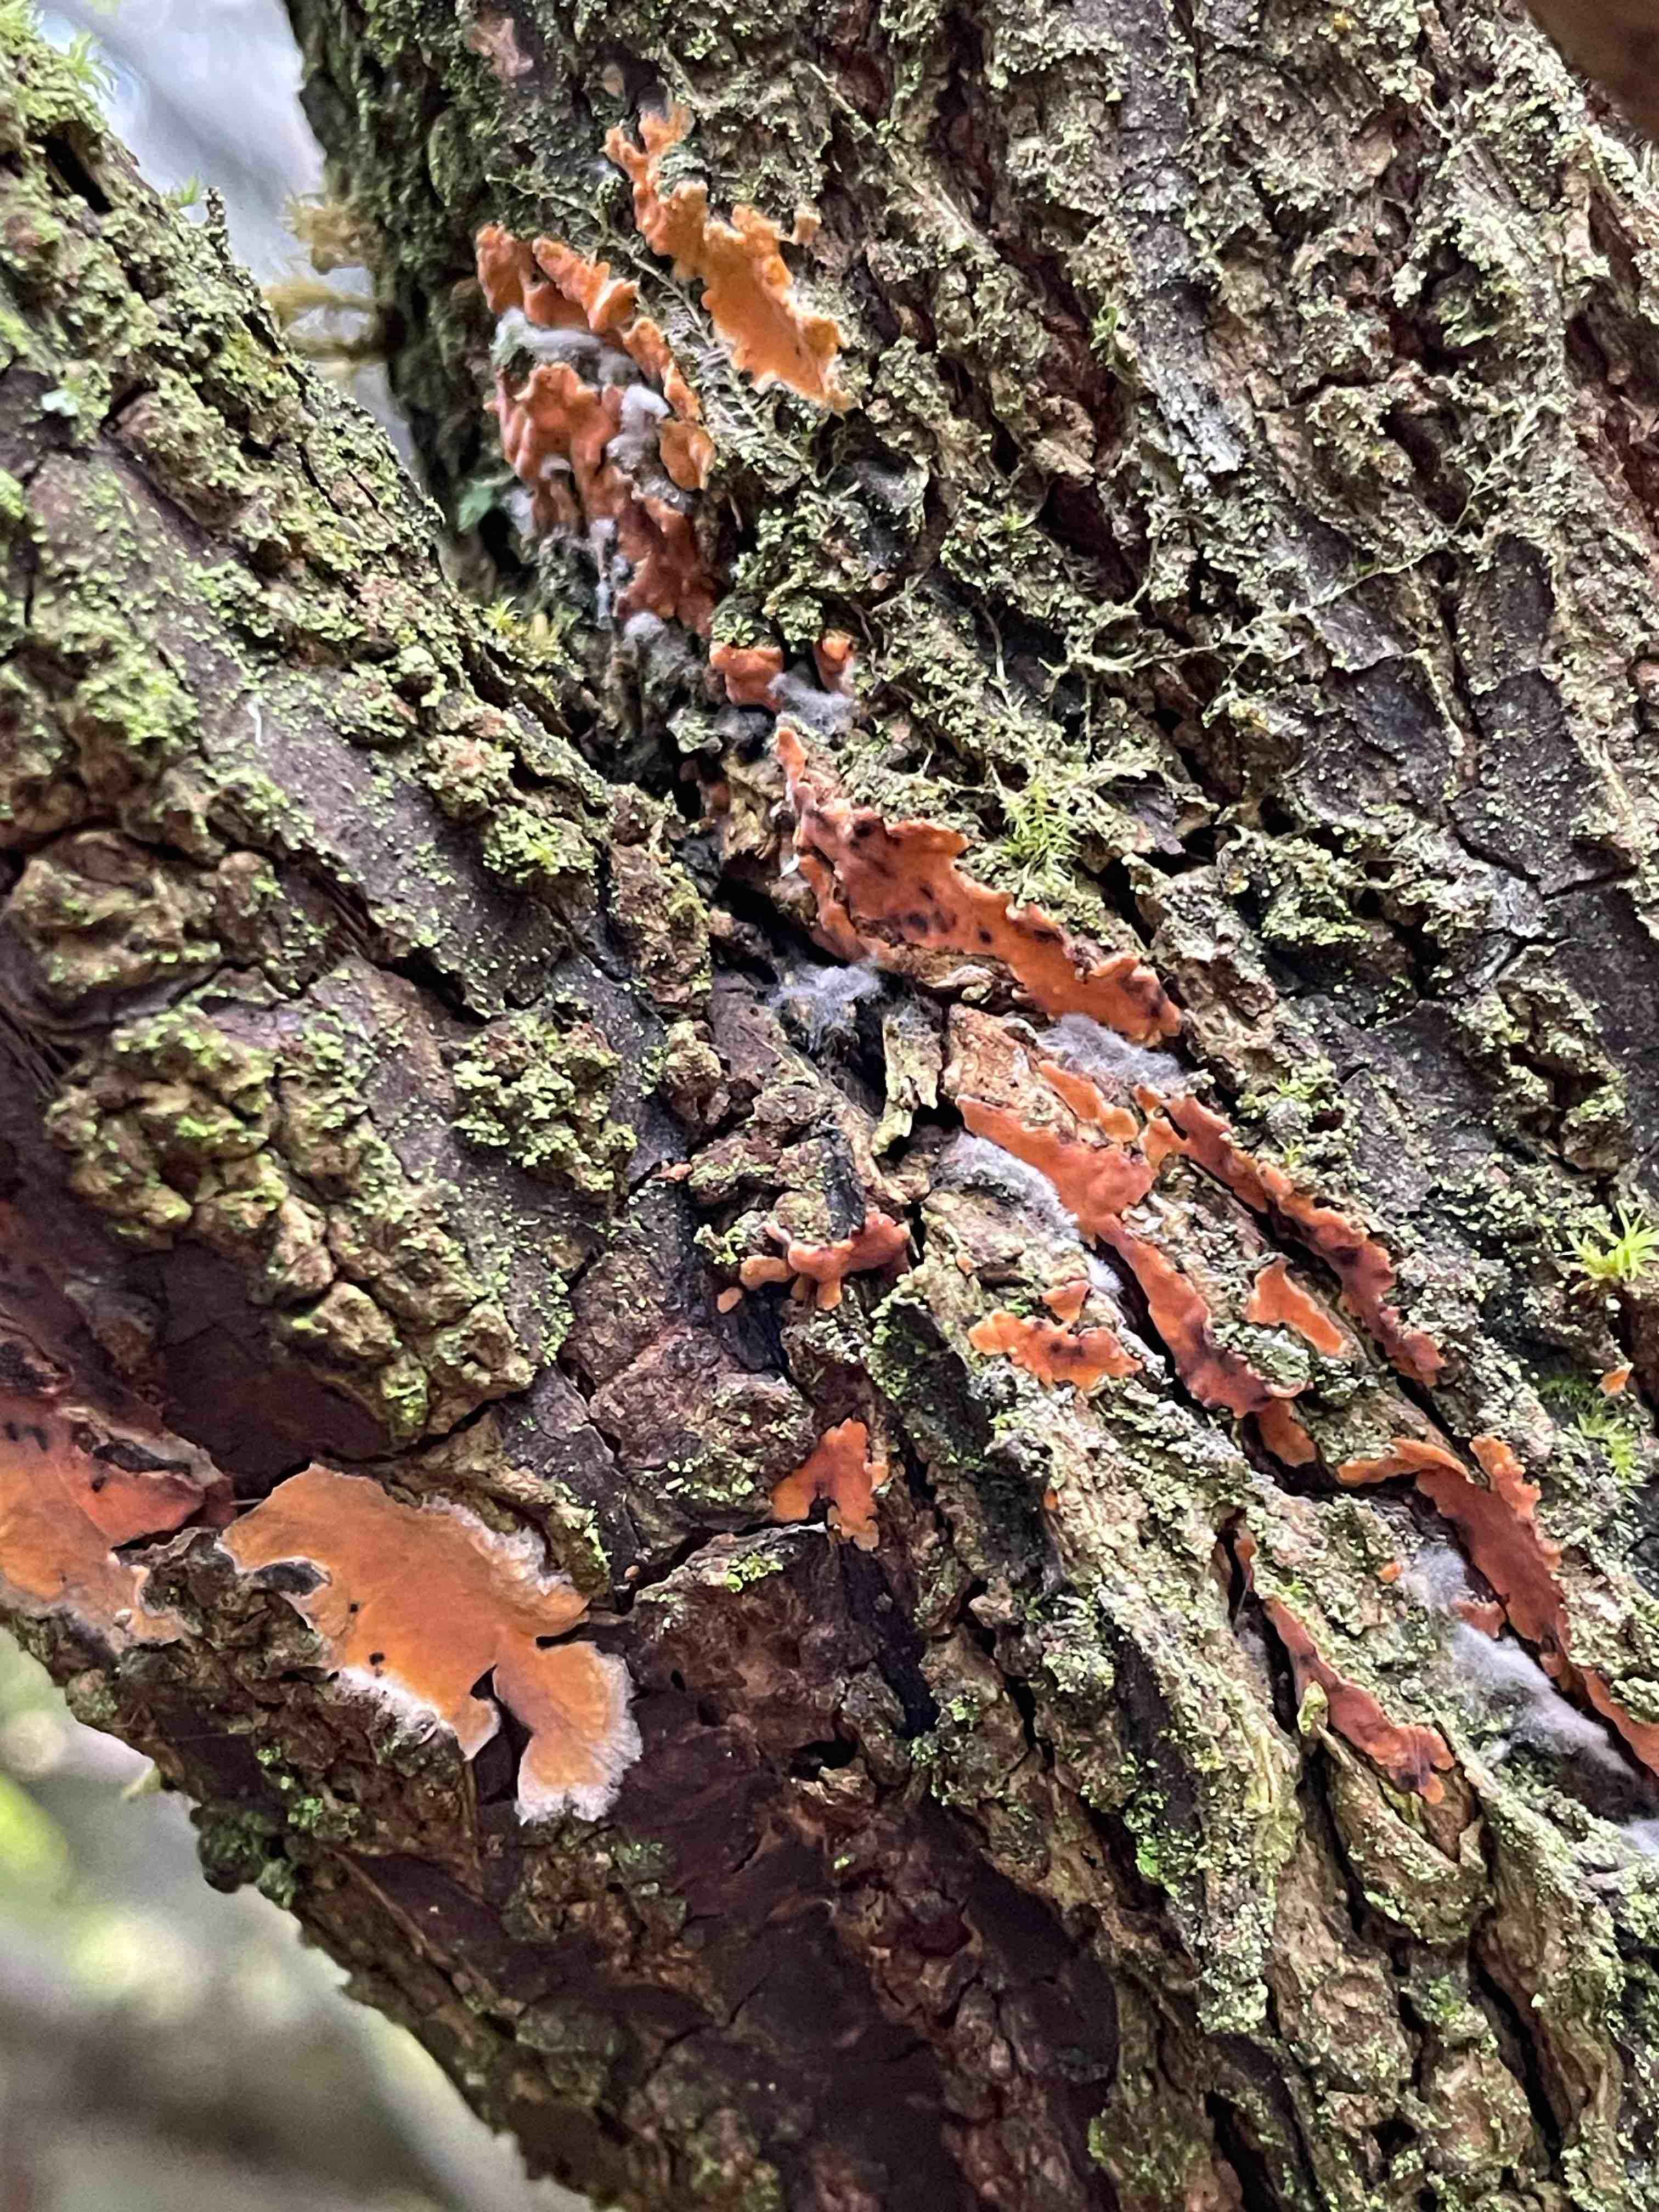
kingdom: Fungi
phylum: Basidiomycota
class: Agaricomycetes
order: Russulales
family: Peniophoraceae
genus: Peniophora
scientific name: Peniophora incarnata
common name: laksefarvet voksskind
